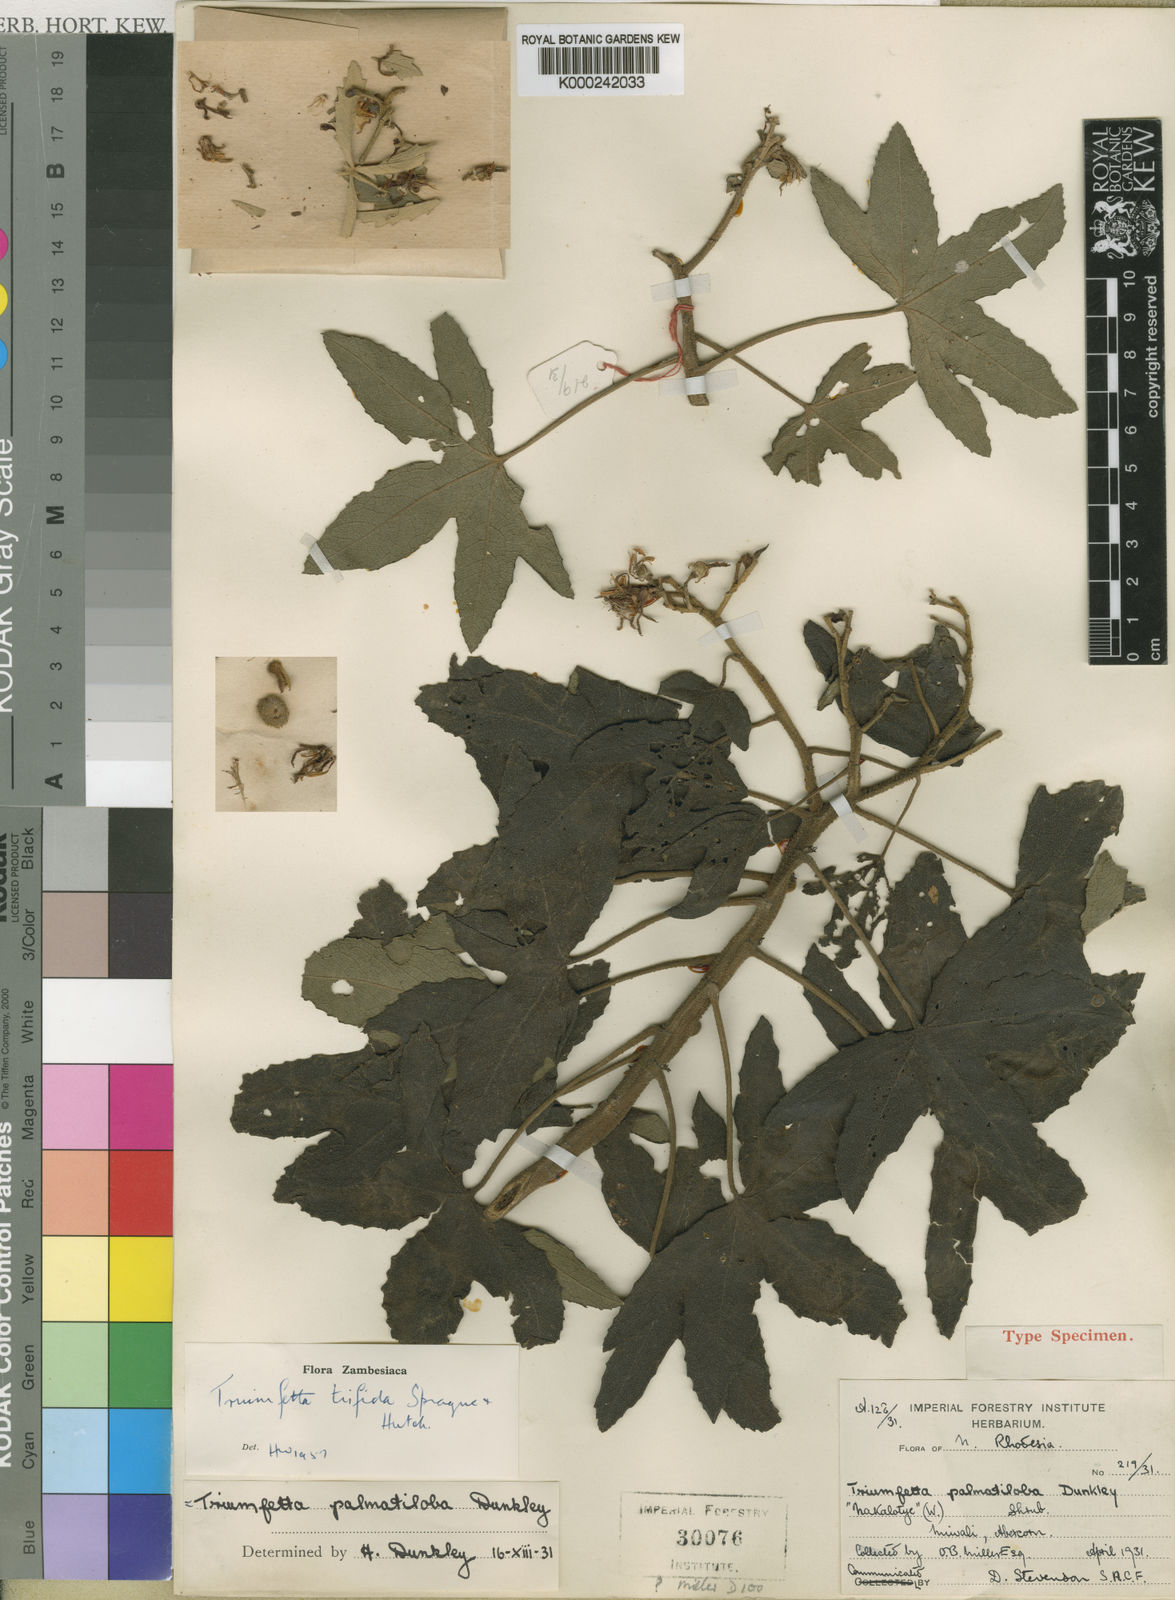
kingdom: Plantae
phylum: Tracheophyta
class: Magnoliopsida
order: Malvales
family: Malvaceae
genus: Triumfetta
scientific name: Triumfetta trifida
